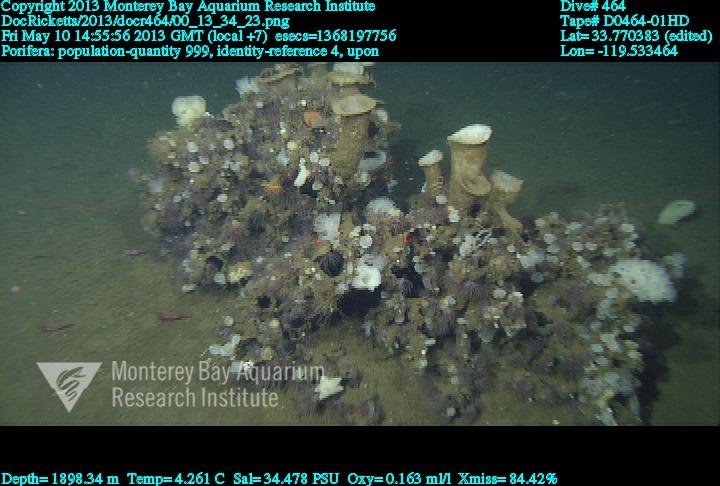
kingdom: Animalia
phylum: Porifera
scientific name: Porifera
